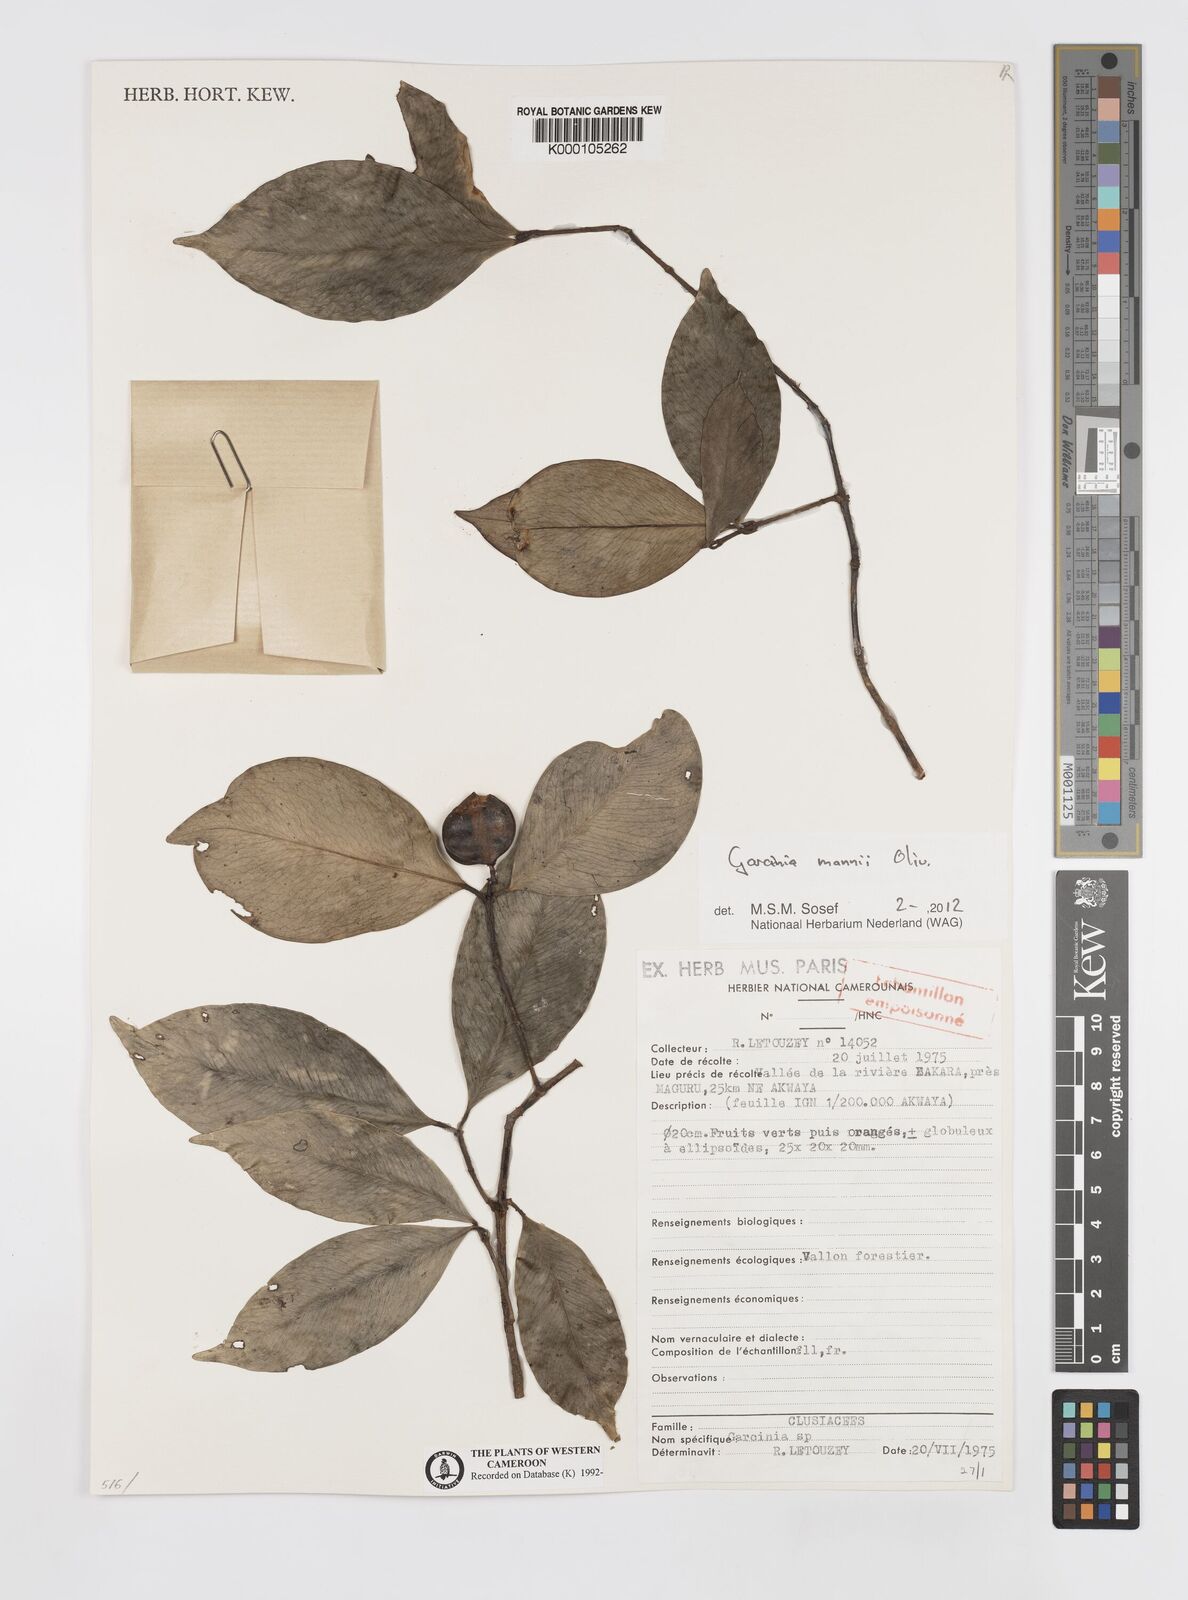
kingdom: Plantae
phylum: Tracheophyta
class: Magnoliopsida
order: Malpighiales
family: Clusiaceae
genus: Garcinia
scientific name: Garcinia
